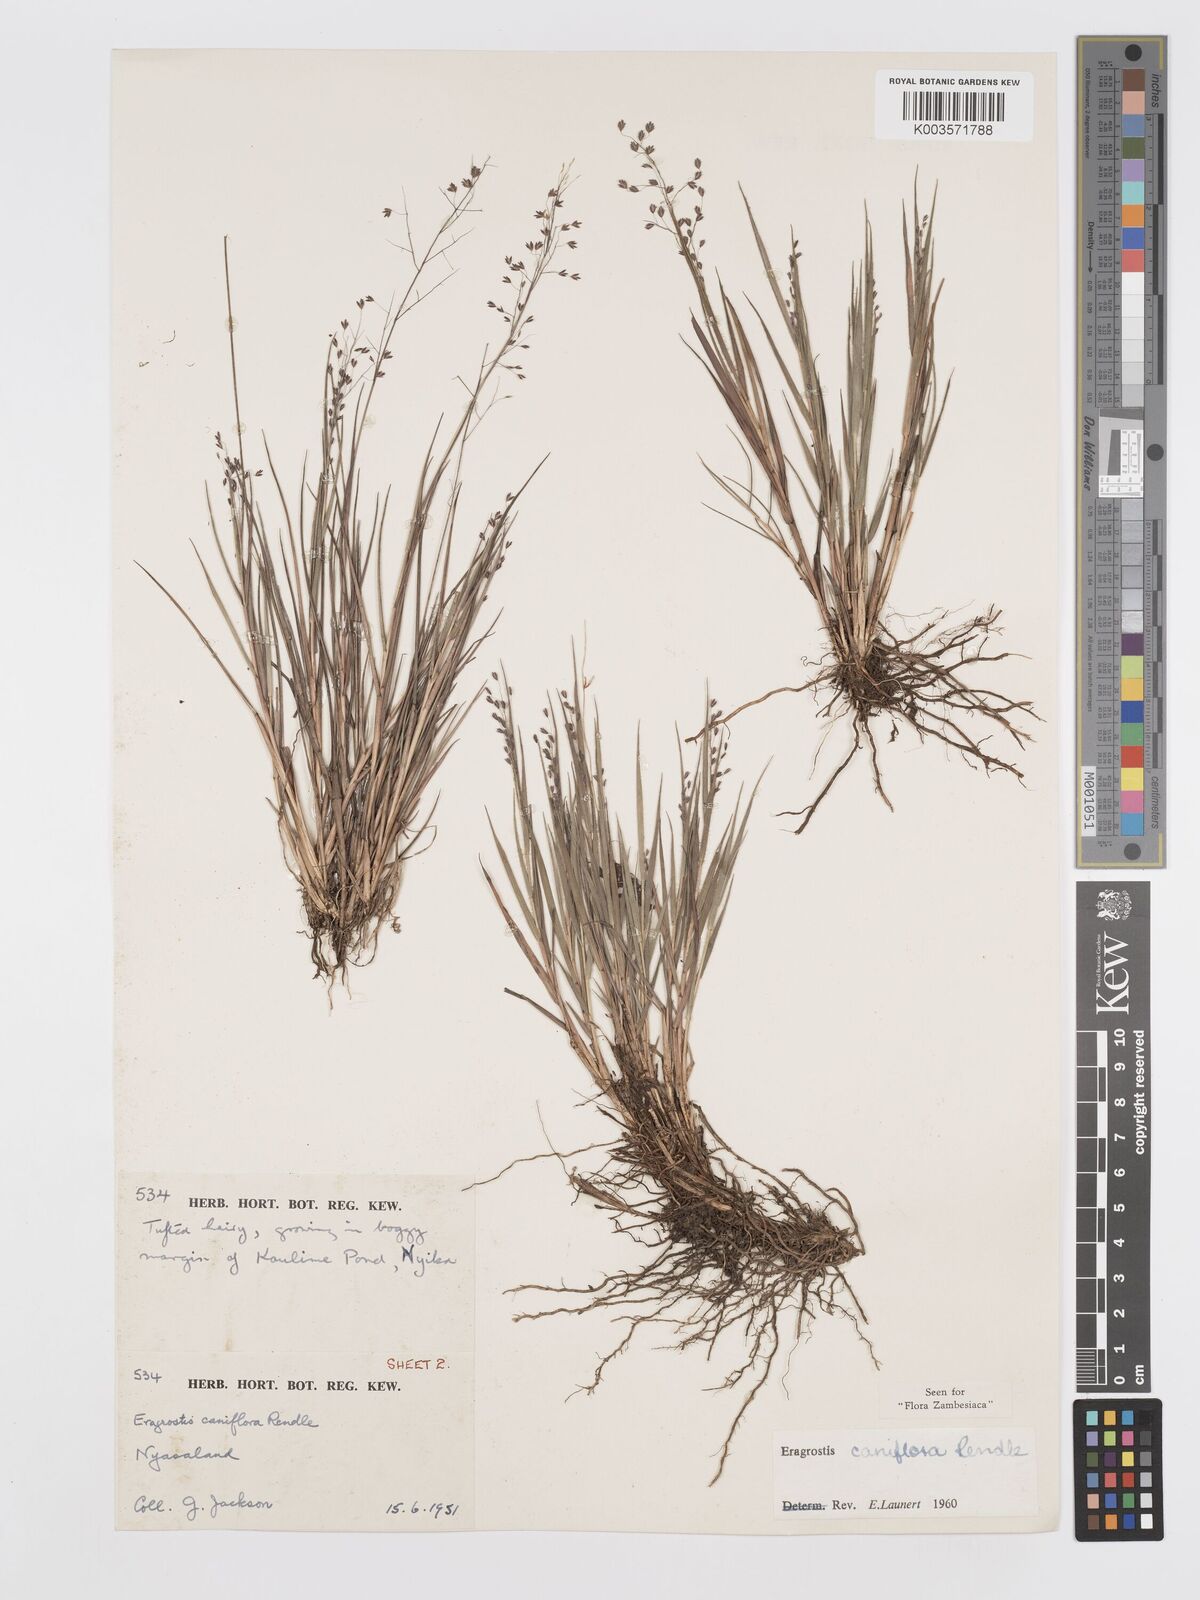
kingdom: Plantae
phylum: Tracheophyta
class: Liliopsida
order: Poales
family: Poaceae
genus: Eragrostis
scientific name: Eragrostis caniflora
